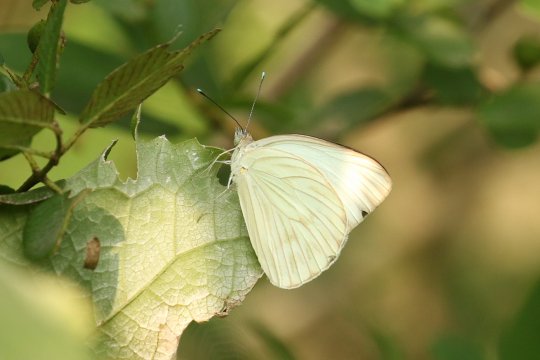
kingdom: Animalia
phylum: Arthropoda
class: Insecta
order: Lepidoptera
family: Pieridae
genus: Ascia
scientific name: Ascia monuste
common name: Great Southern White
